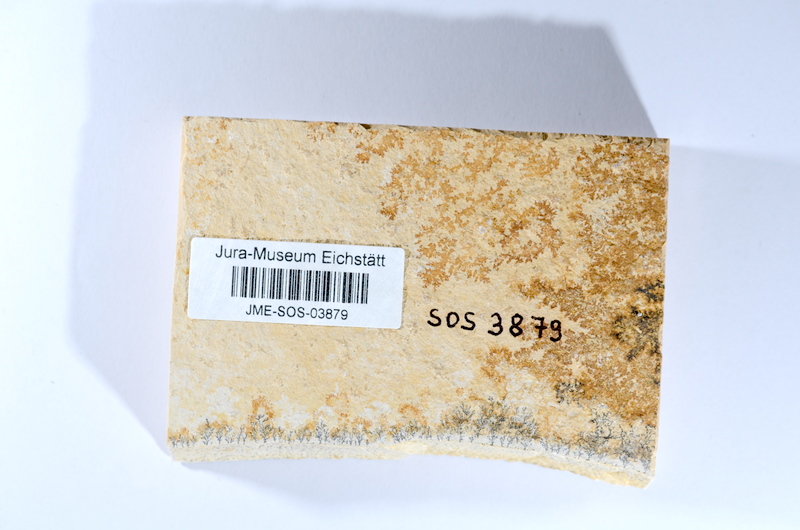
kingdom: Animalia
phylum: Chordata
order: Salmoniformes
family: Orthogonikleithridae
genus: Leptolepides
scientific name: Leptolepides sprattiformis
